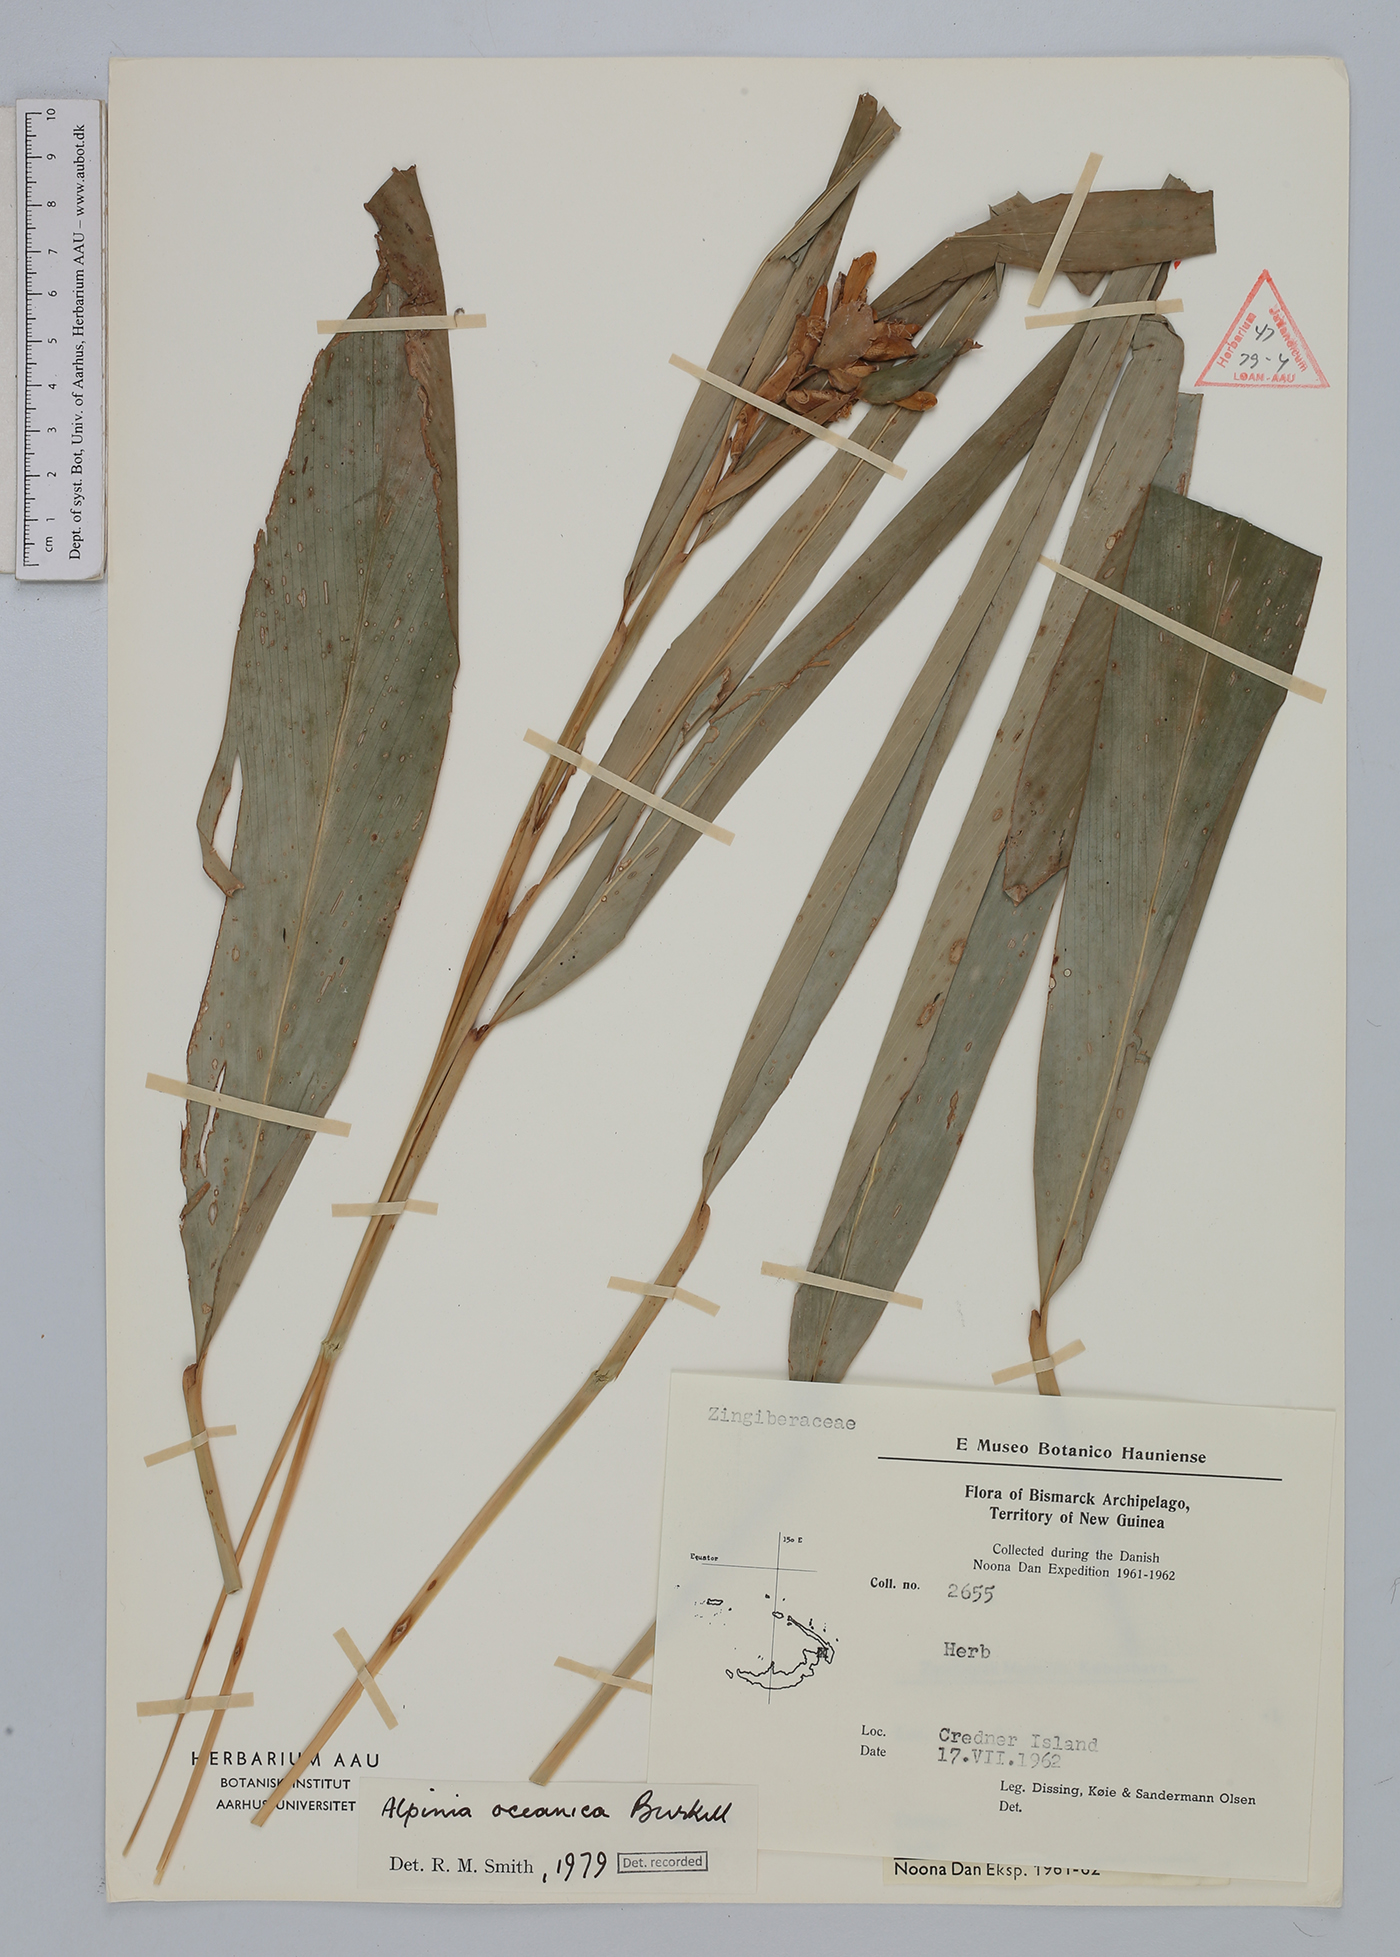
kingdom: Plantae
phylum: Tracheophyta
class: Liliopsida
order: Zingiberales
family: Zingiberaceae
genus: Alpinia
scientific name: Alpinia oceanica
